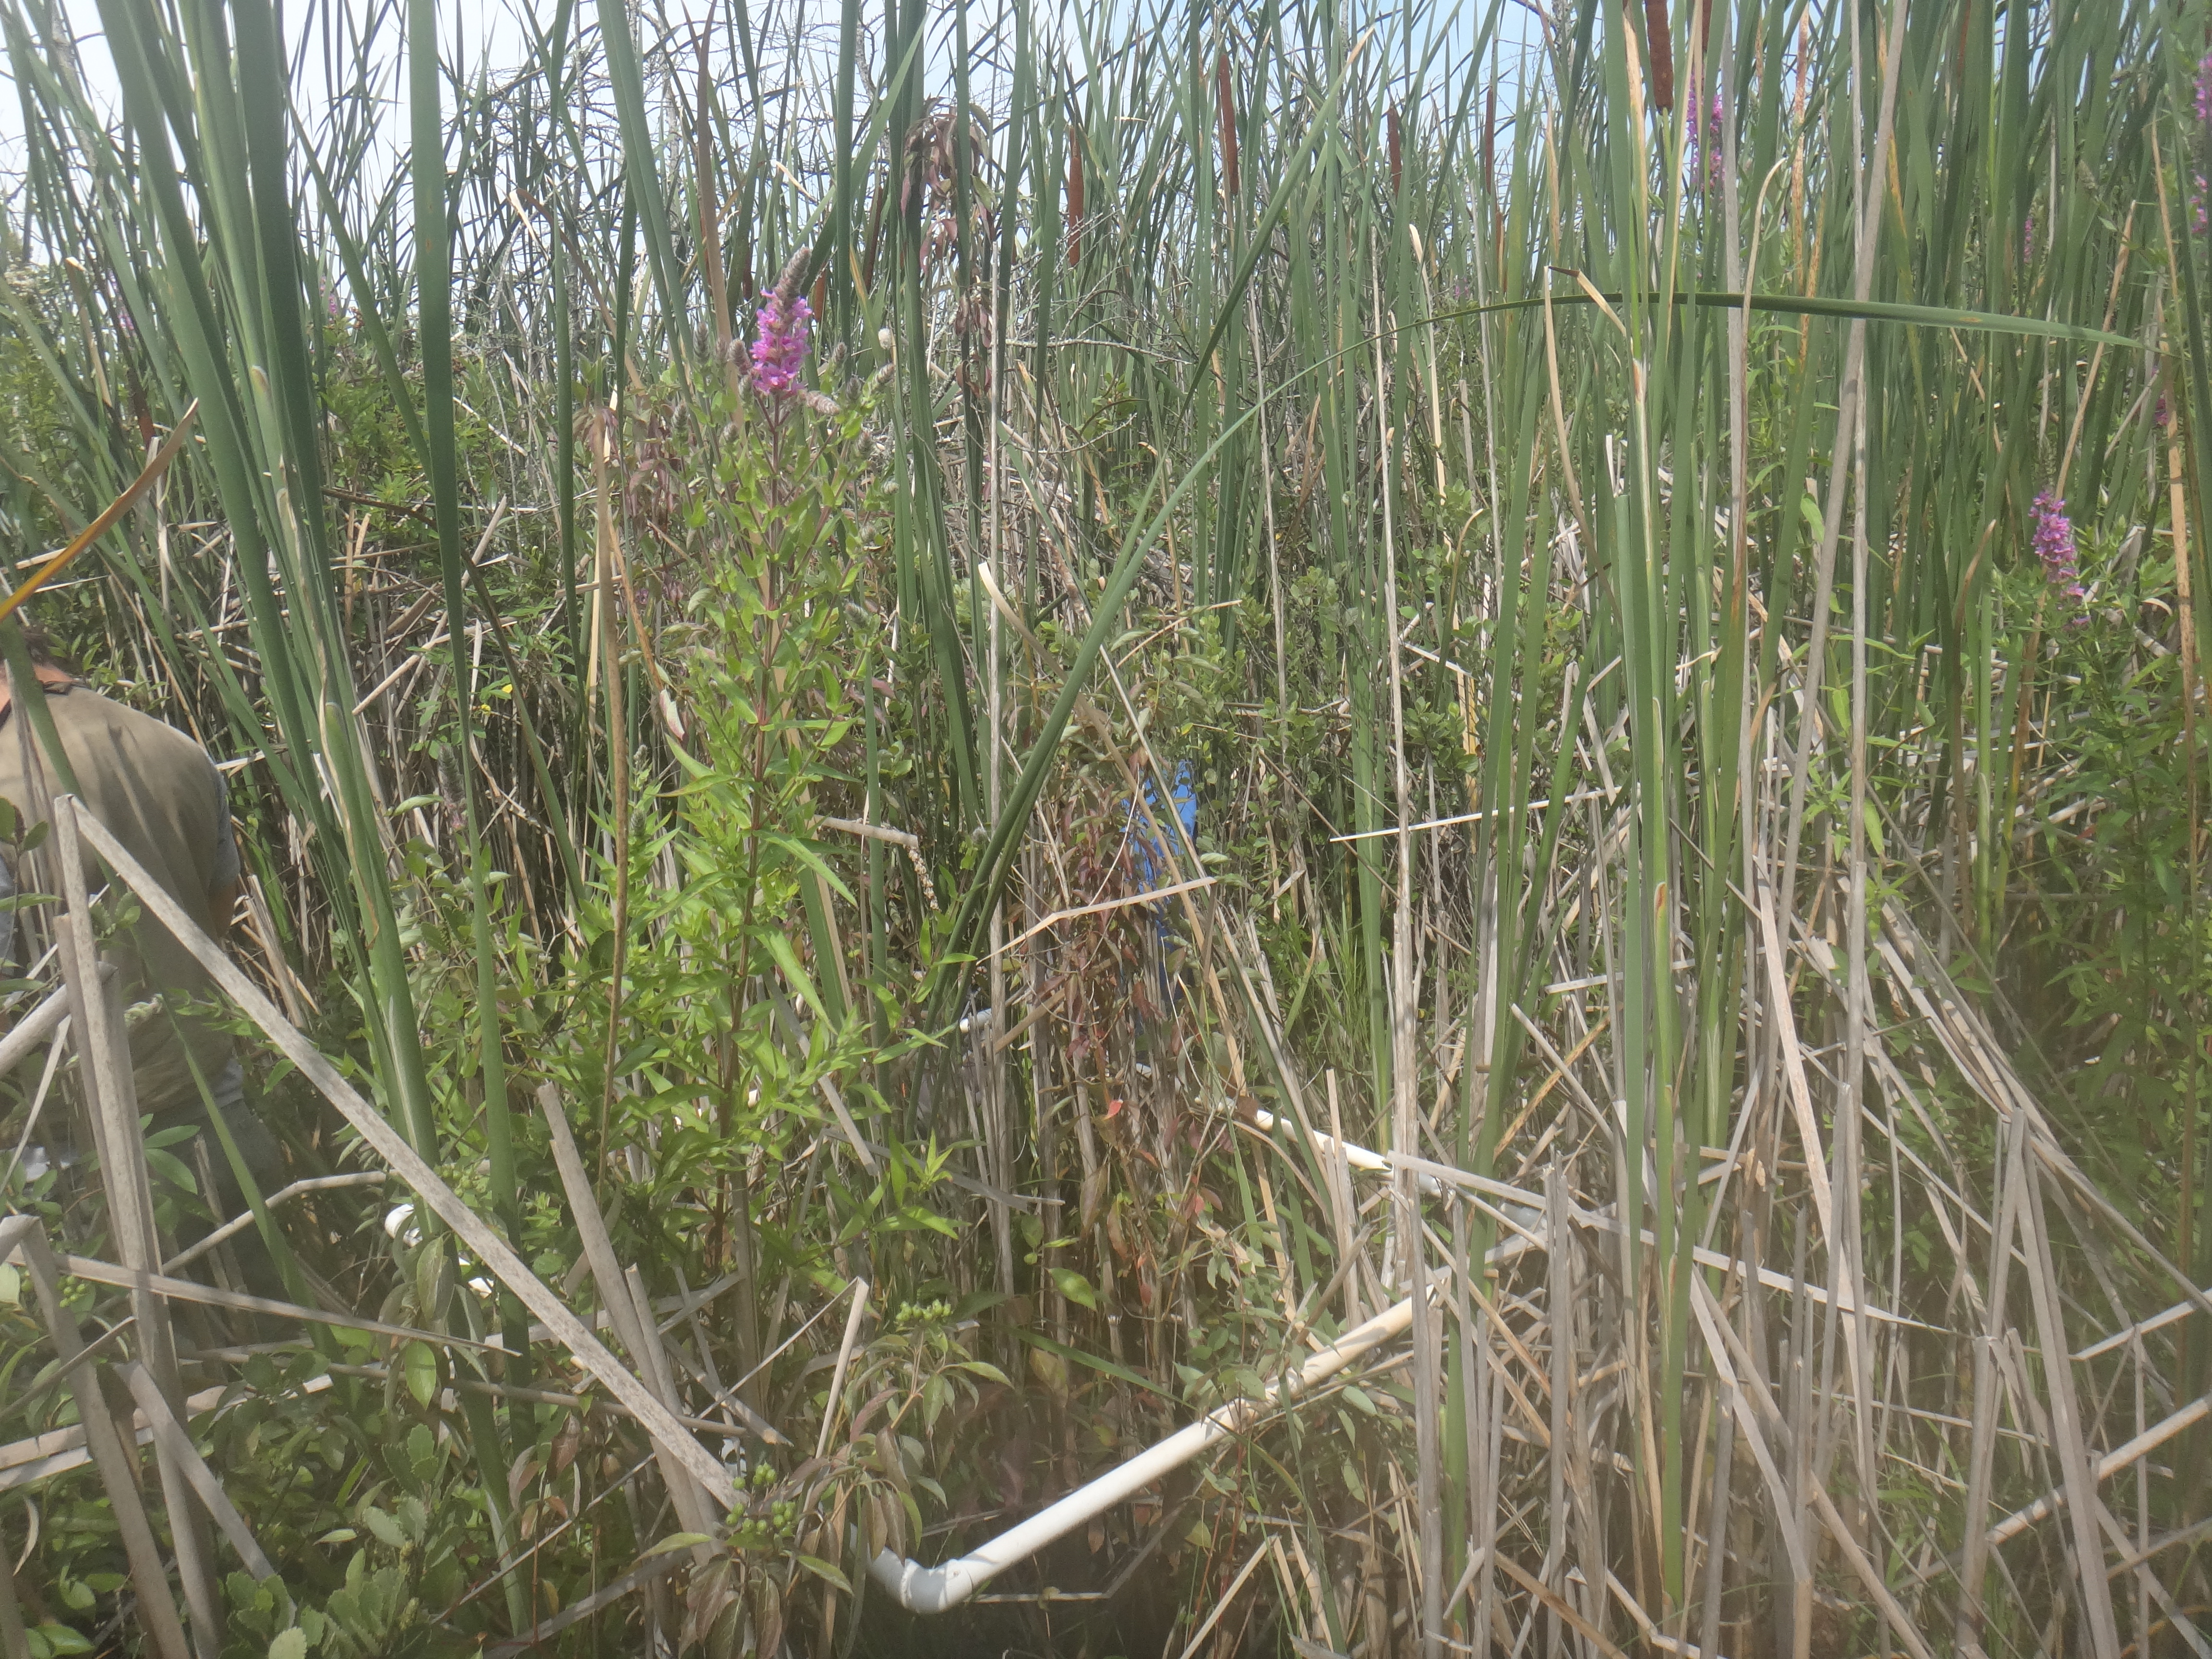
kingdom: Plantae
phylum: Tracheophyta
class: Liliopsida
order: Poales
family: Poaceae
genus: Muhlenbergia
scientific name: Muhlenbergia glomerata
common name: Bog muhly
